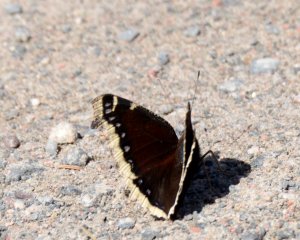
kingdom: Animalia
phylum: Arthropoda
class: Insecta
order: Lepidoptera
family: Nymphalidae
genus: Nymphalis
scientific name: Nymphalis antiopa
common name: Mourning Cloak
